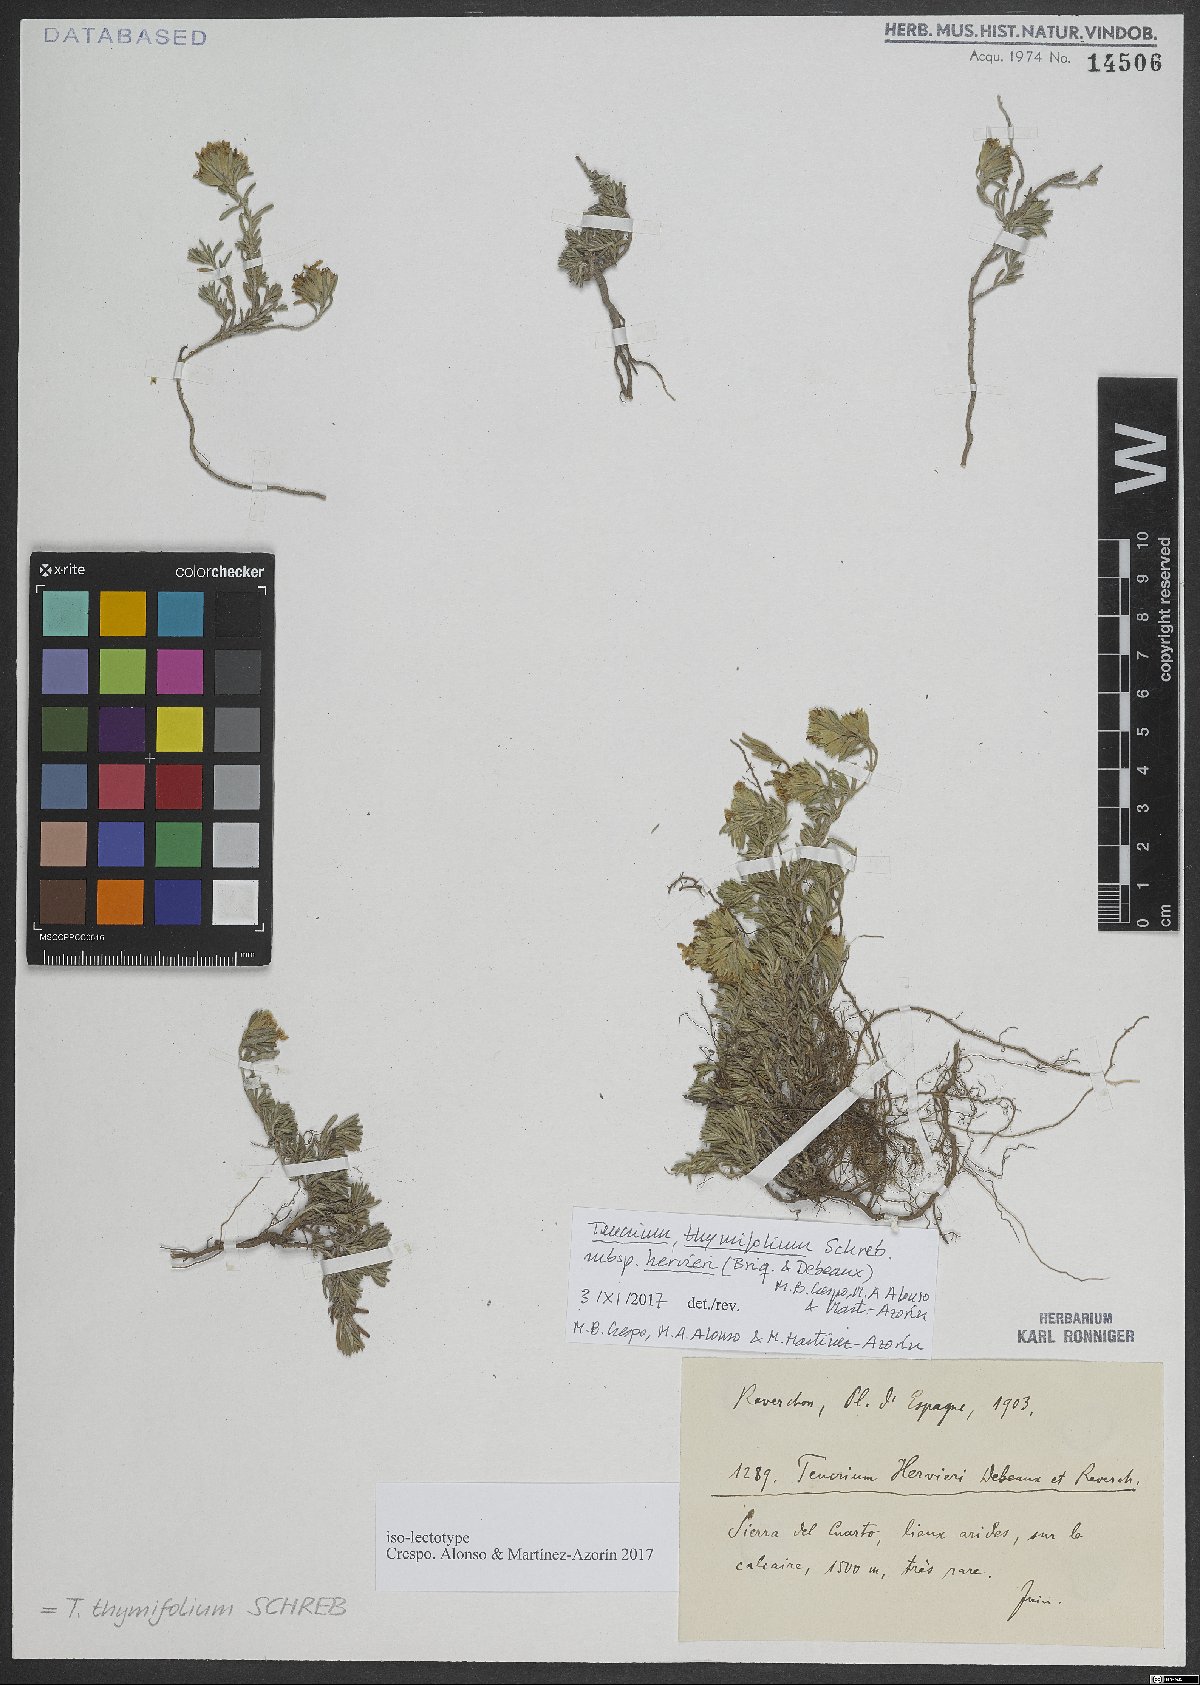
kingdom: Plantae
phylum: Tracheophyta
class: Magnoliopsida
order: Lamiales
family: Lamiaceae
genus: Teucrium
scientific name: Teucrium thymifolium
